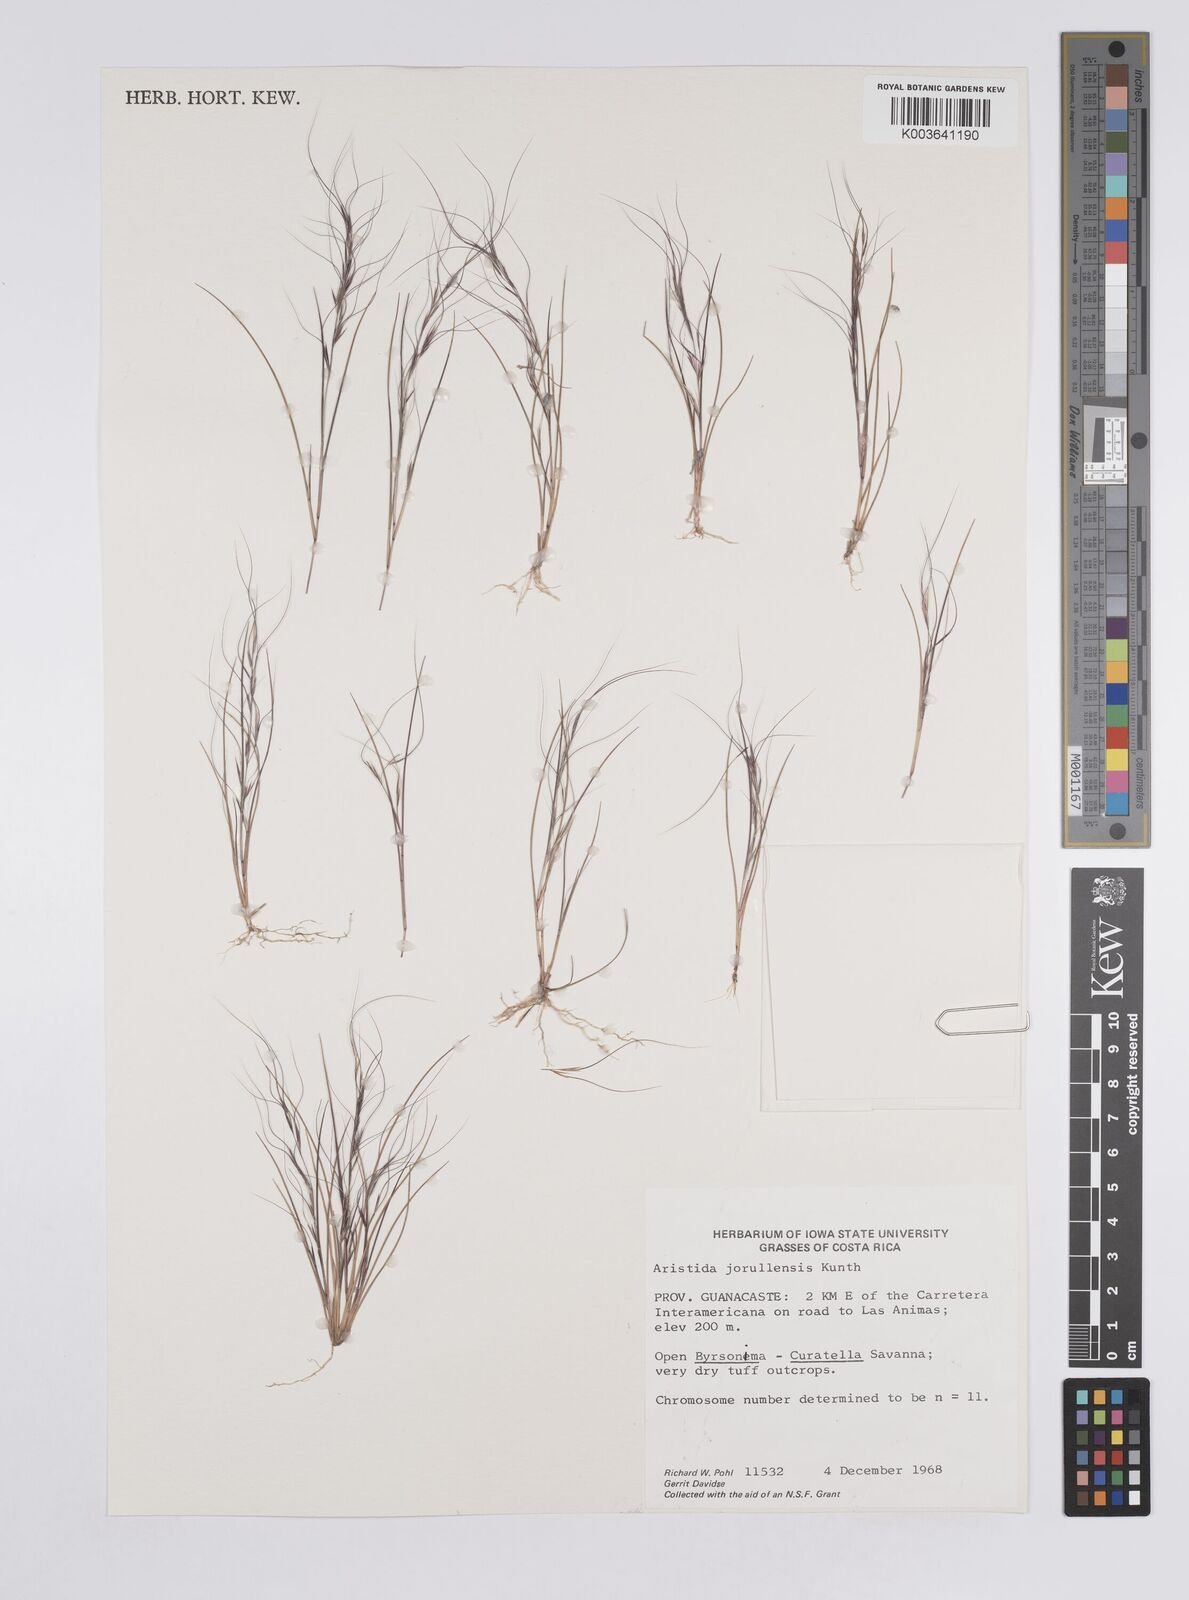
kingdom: Plantae
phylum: Tracheophyta
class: Liliopsida
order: Poales
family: Poaceae
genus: Aristida
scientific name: Aristida jorullensis
